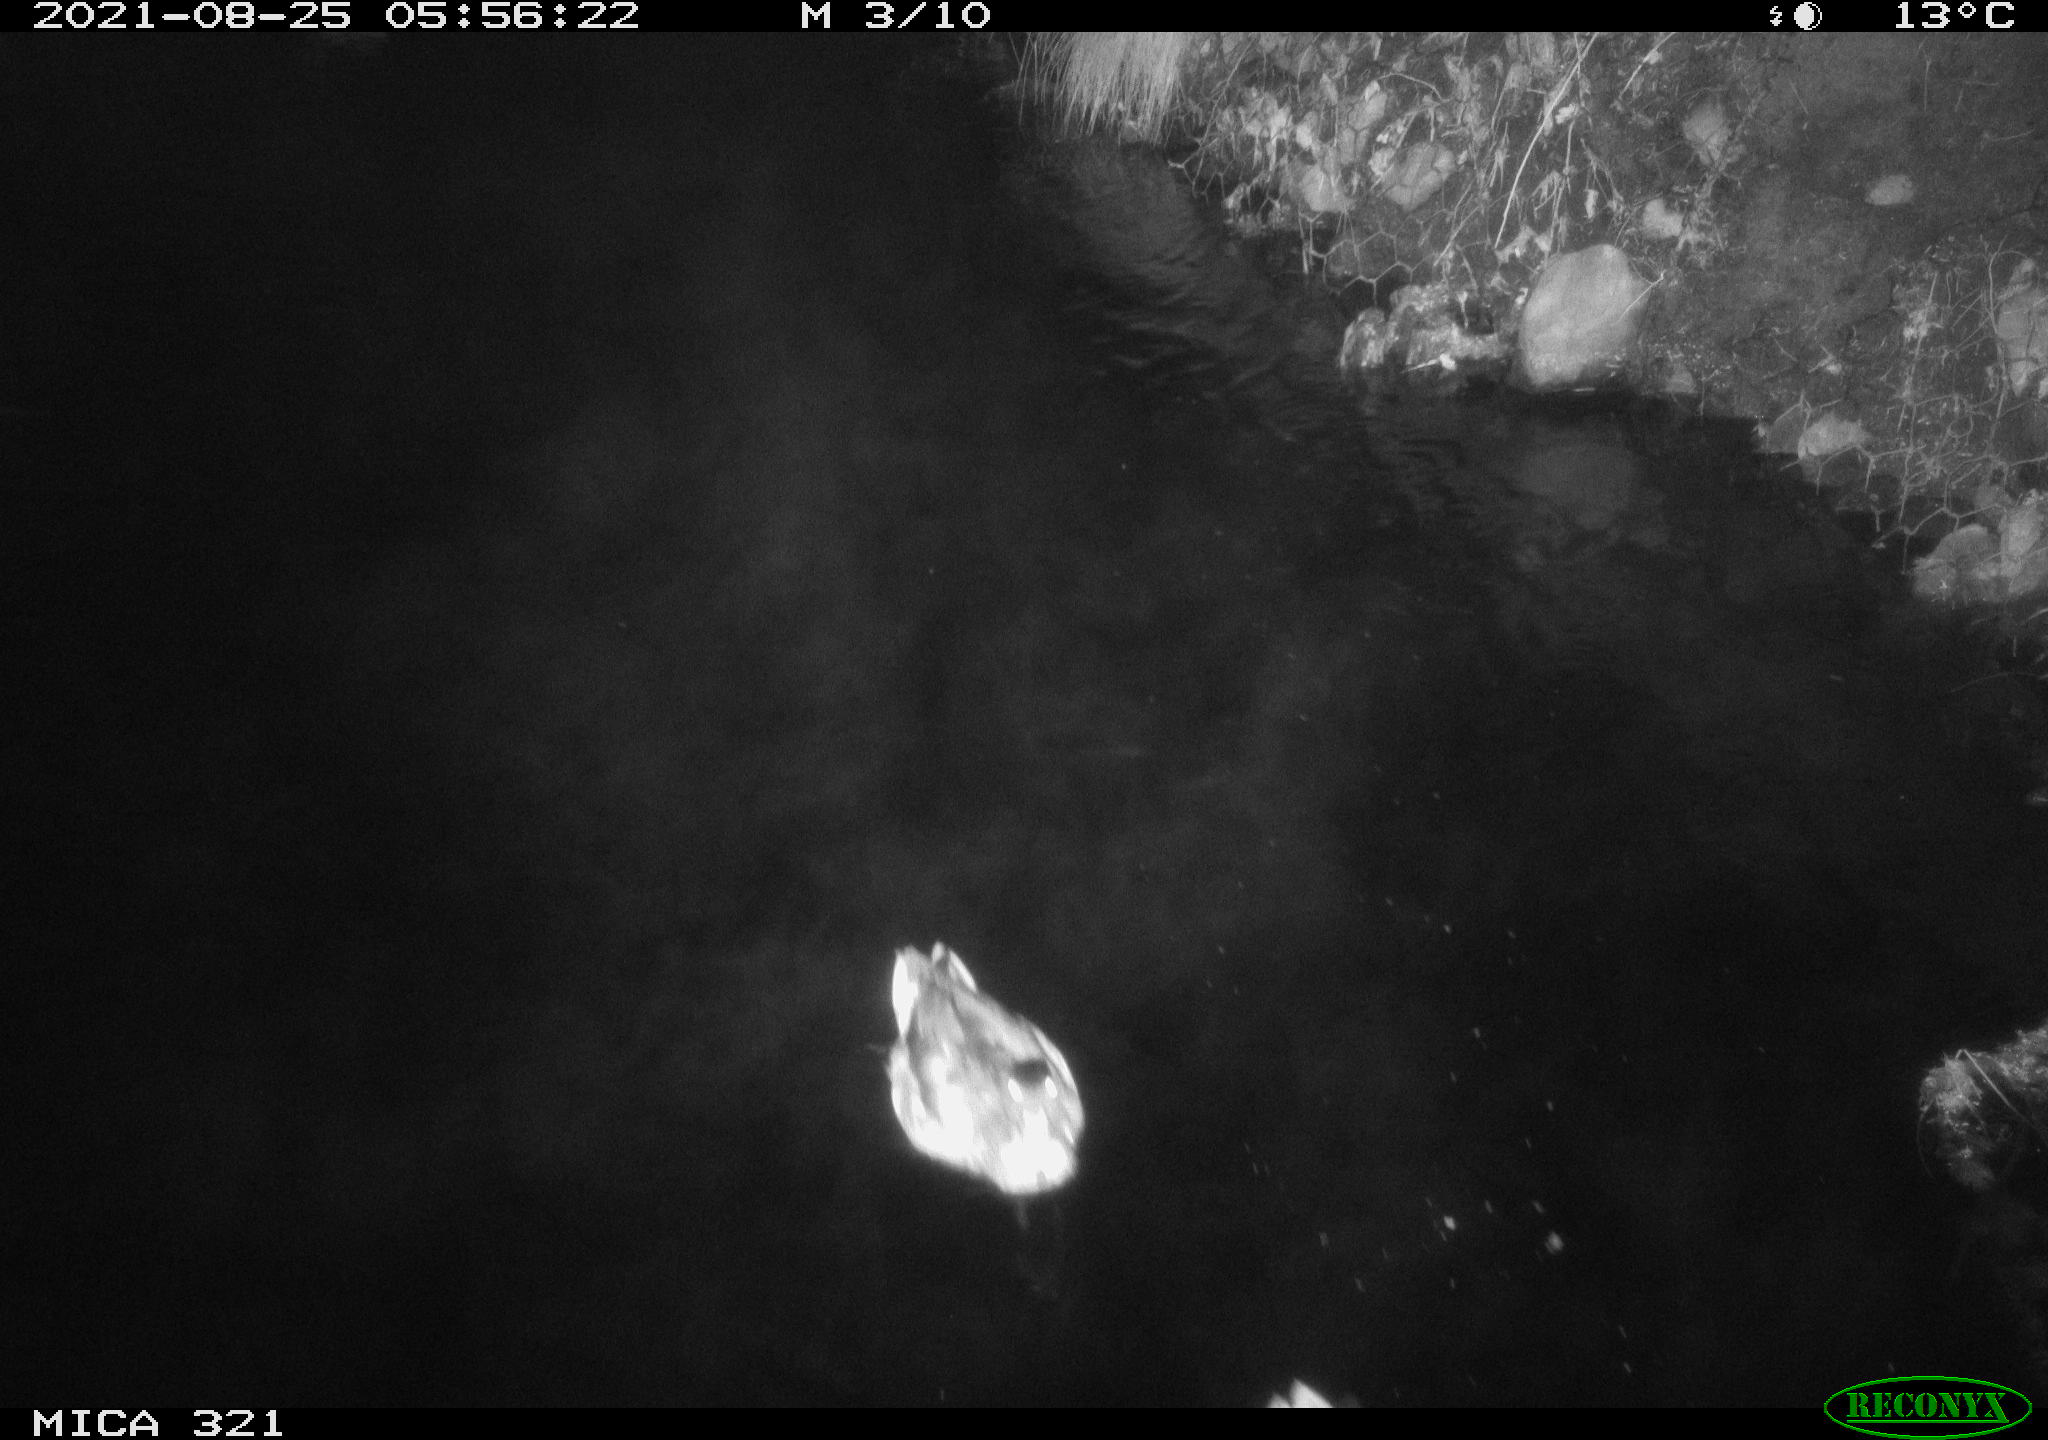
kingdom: Animalia
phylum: Chordata
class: Aves
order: Anseriformes
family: Anatidae
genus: Anas
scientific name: Anas platyrhynchos
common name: Mallard
